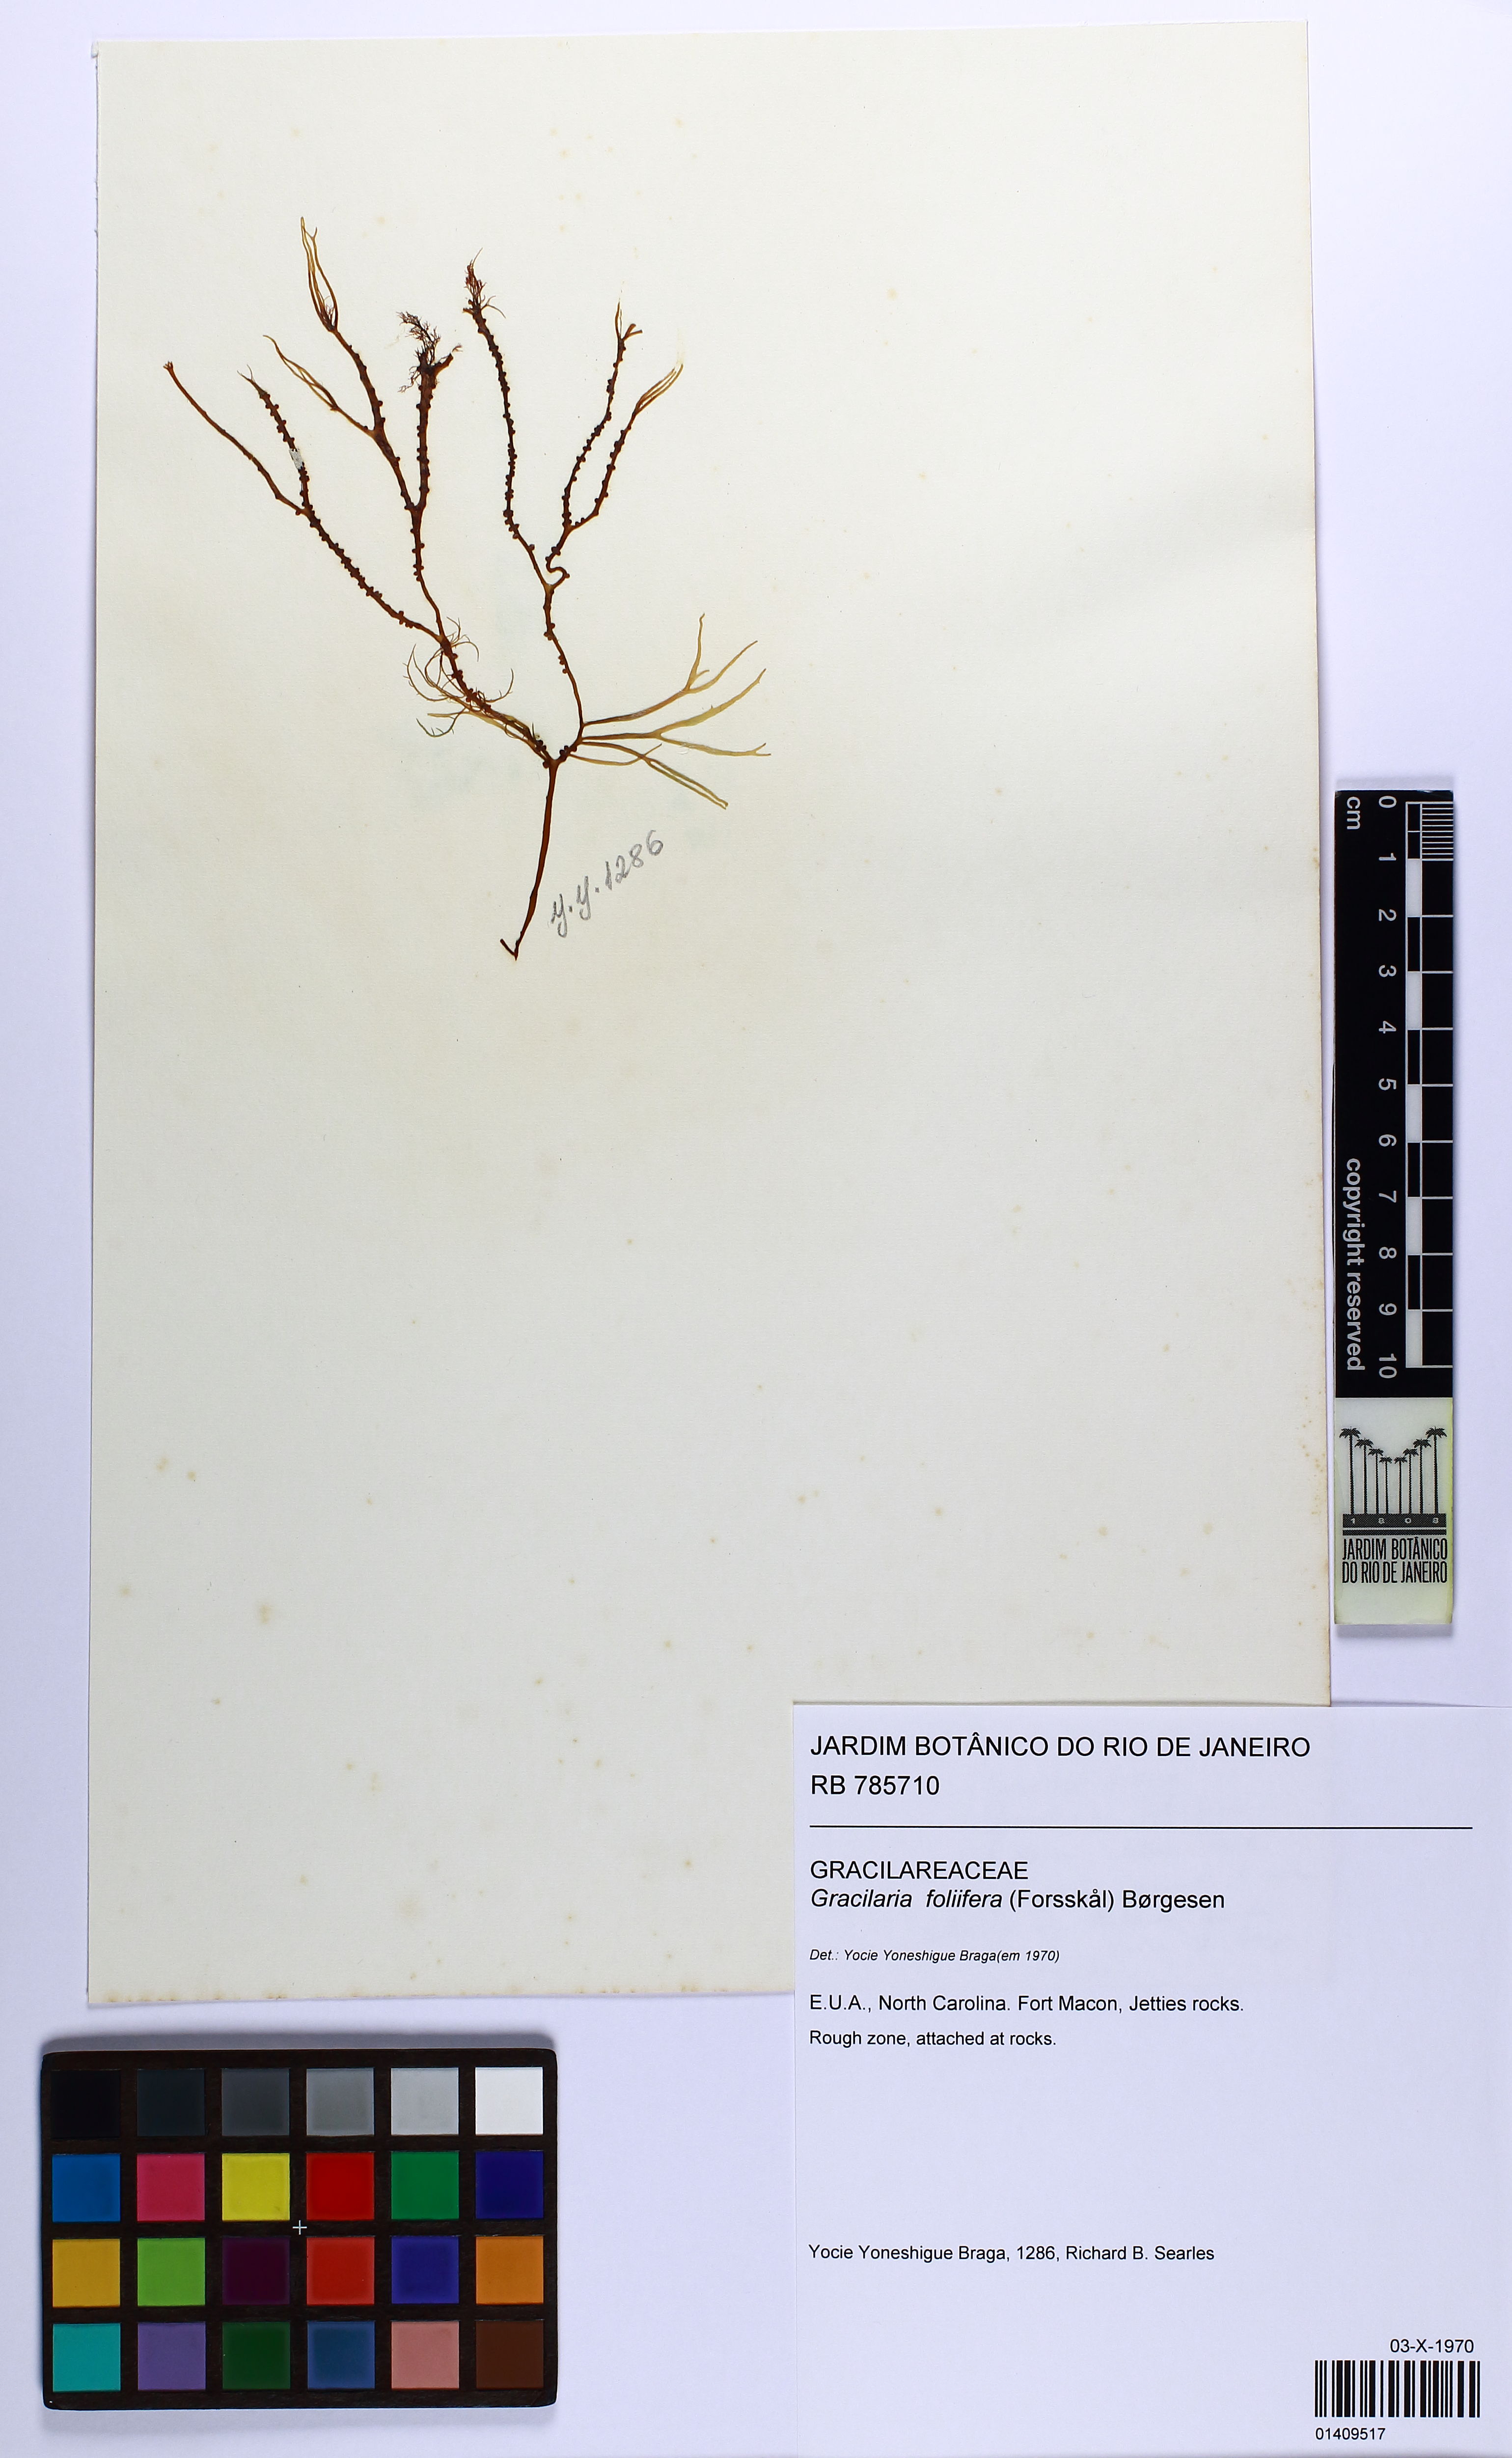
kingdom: Plantae
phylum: Rhodophyta
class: Florideophyceae
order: Gracilariales
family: Gracilariaceae
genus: Gracilaria
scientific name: Gracilaria foliifera
